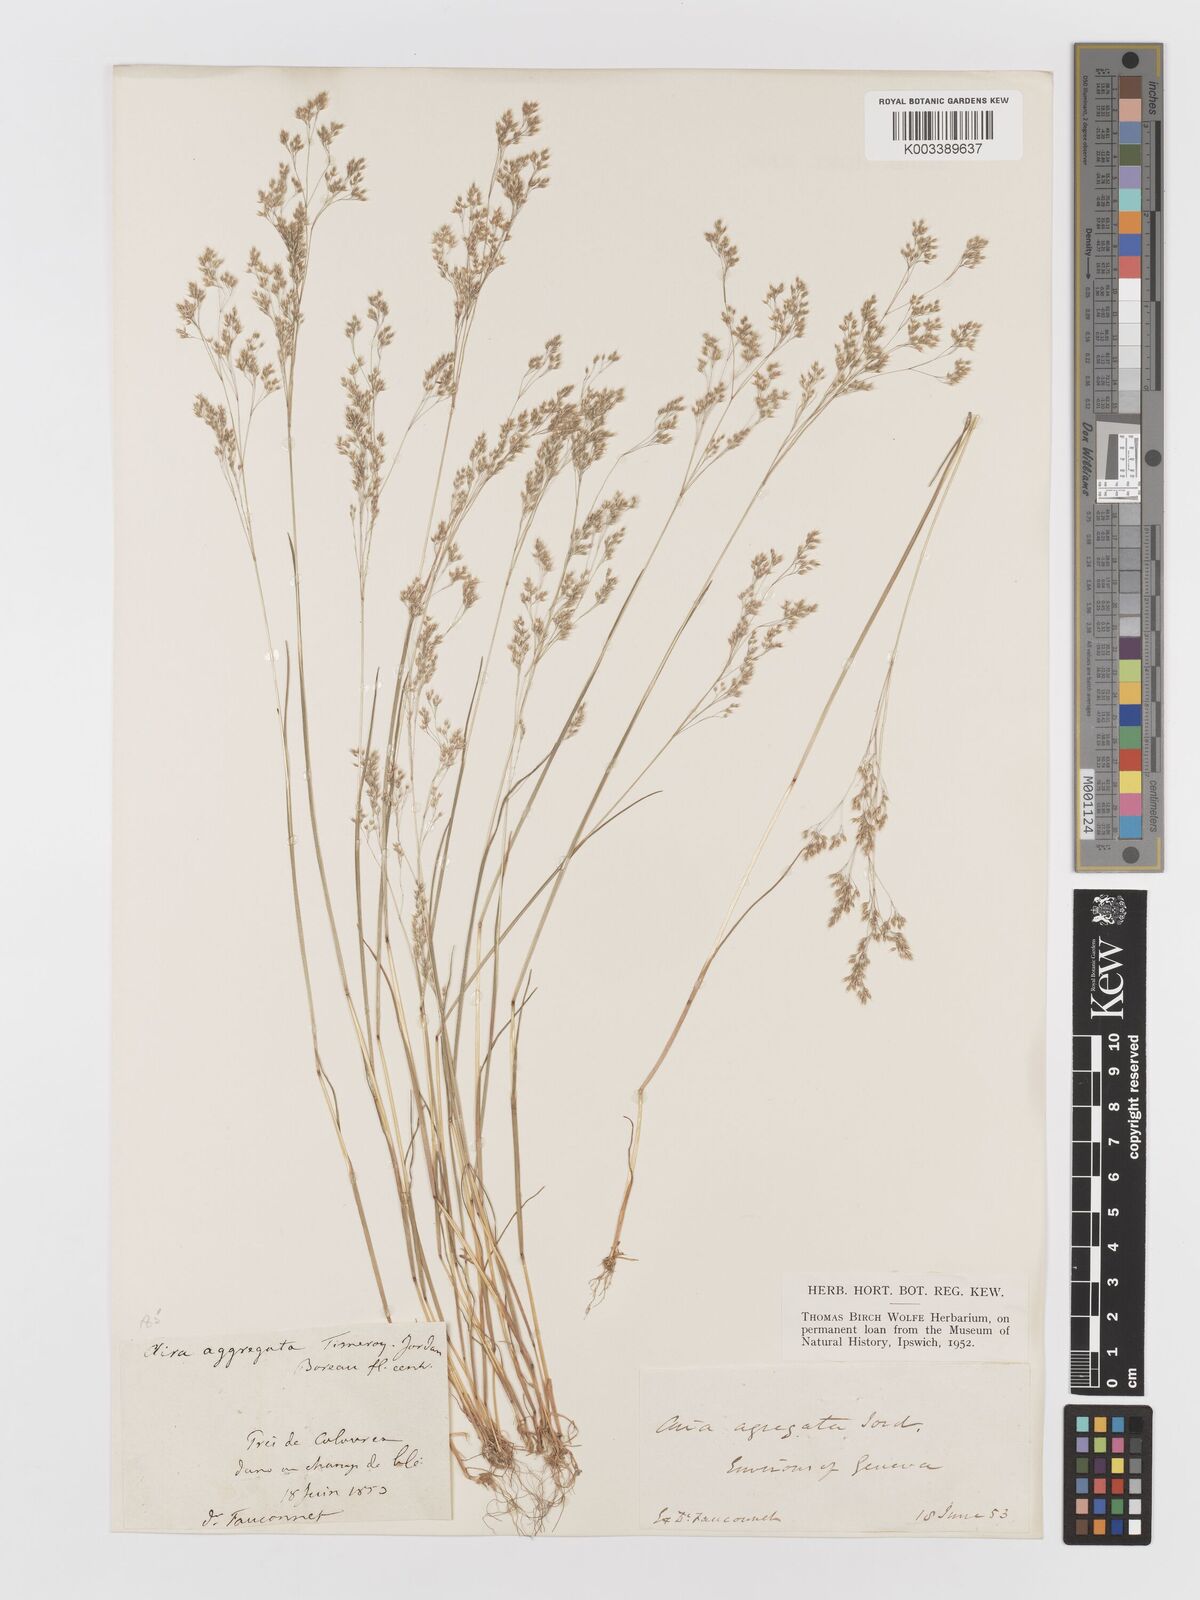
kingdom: Plantae
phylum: Tracheophyta
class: Liliopsida
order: Poales
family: Poaceae
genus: Aira
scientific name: Aira caryophyllea
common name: Silver hairgrass
